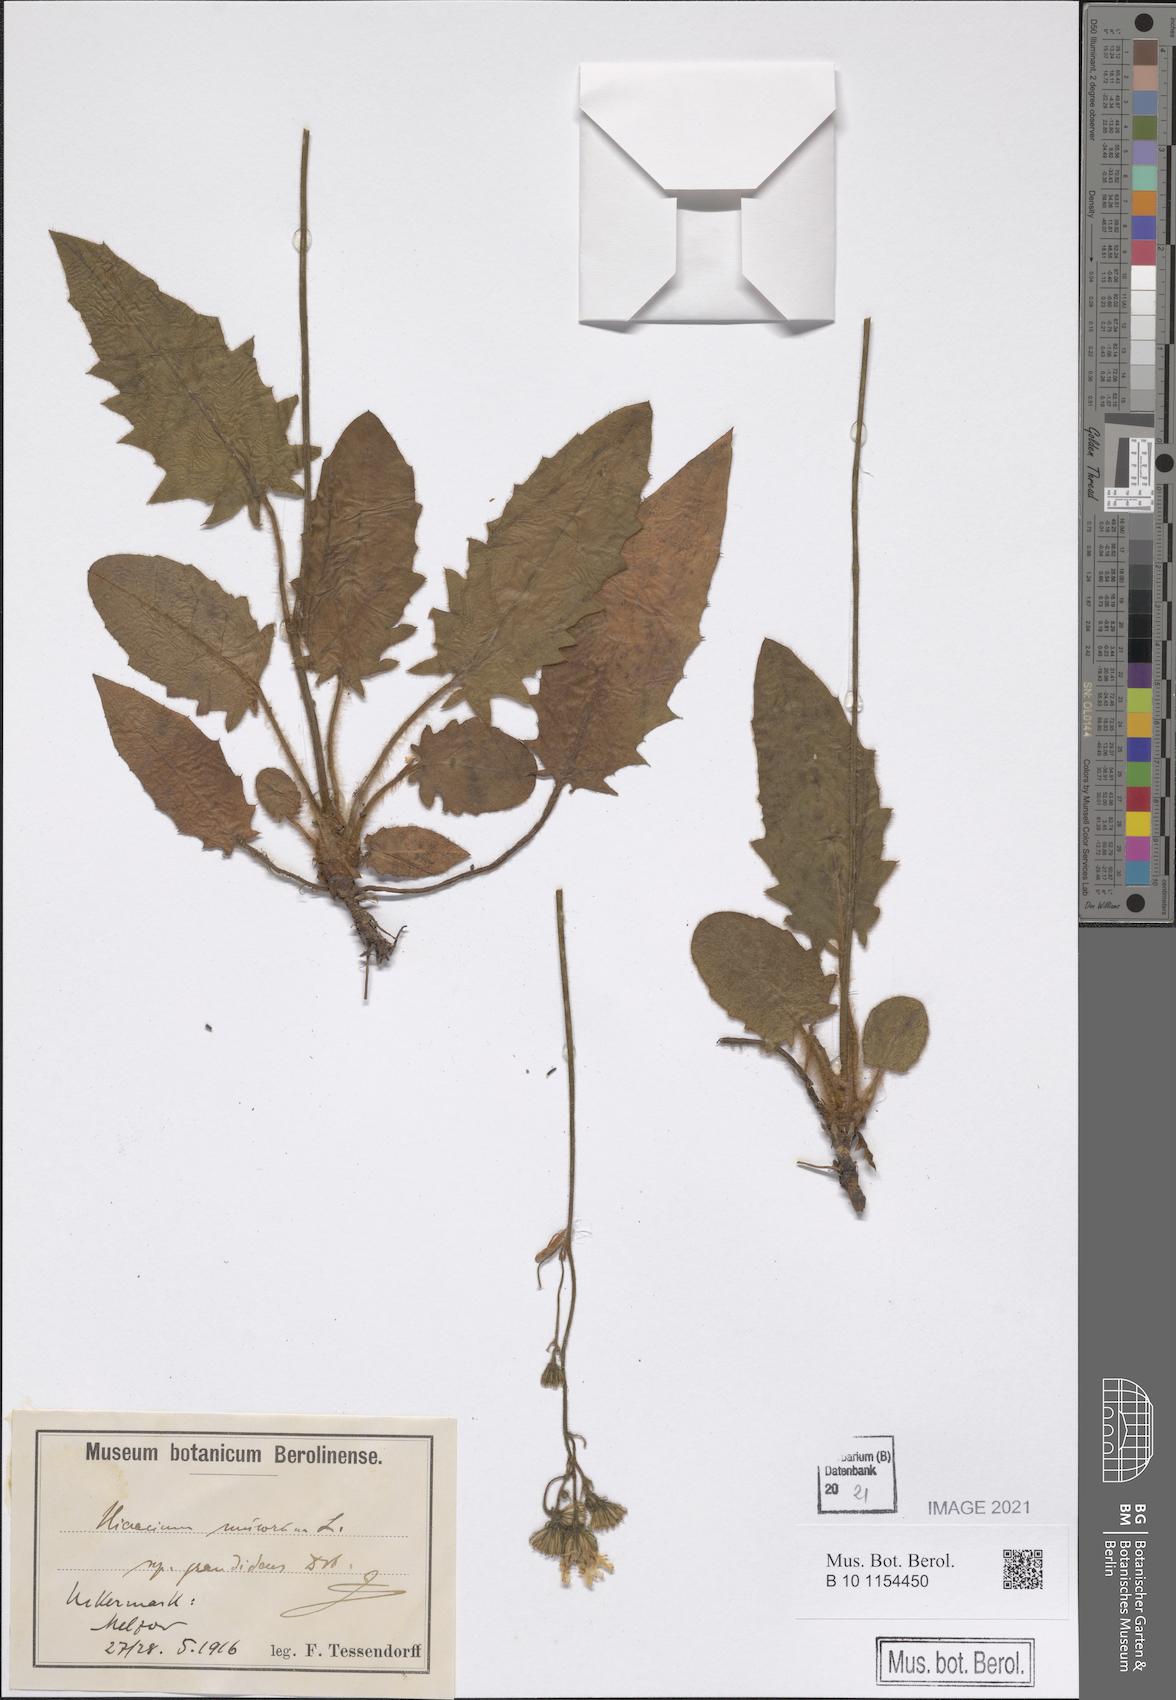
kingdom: Plantae
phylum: Tracheophyta
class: Magnoliopsida
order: Asterales
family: Asteraceae
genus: Hieracium
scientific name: Hieracium murorum
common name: Wall hawkweed
